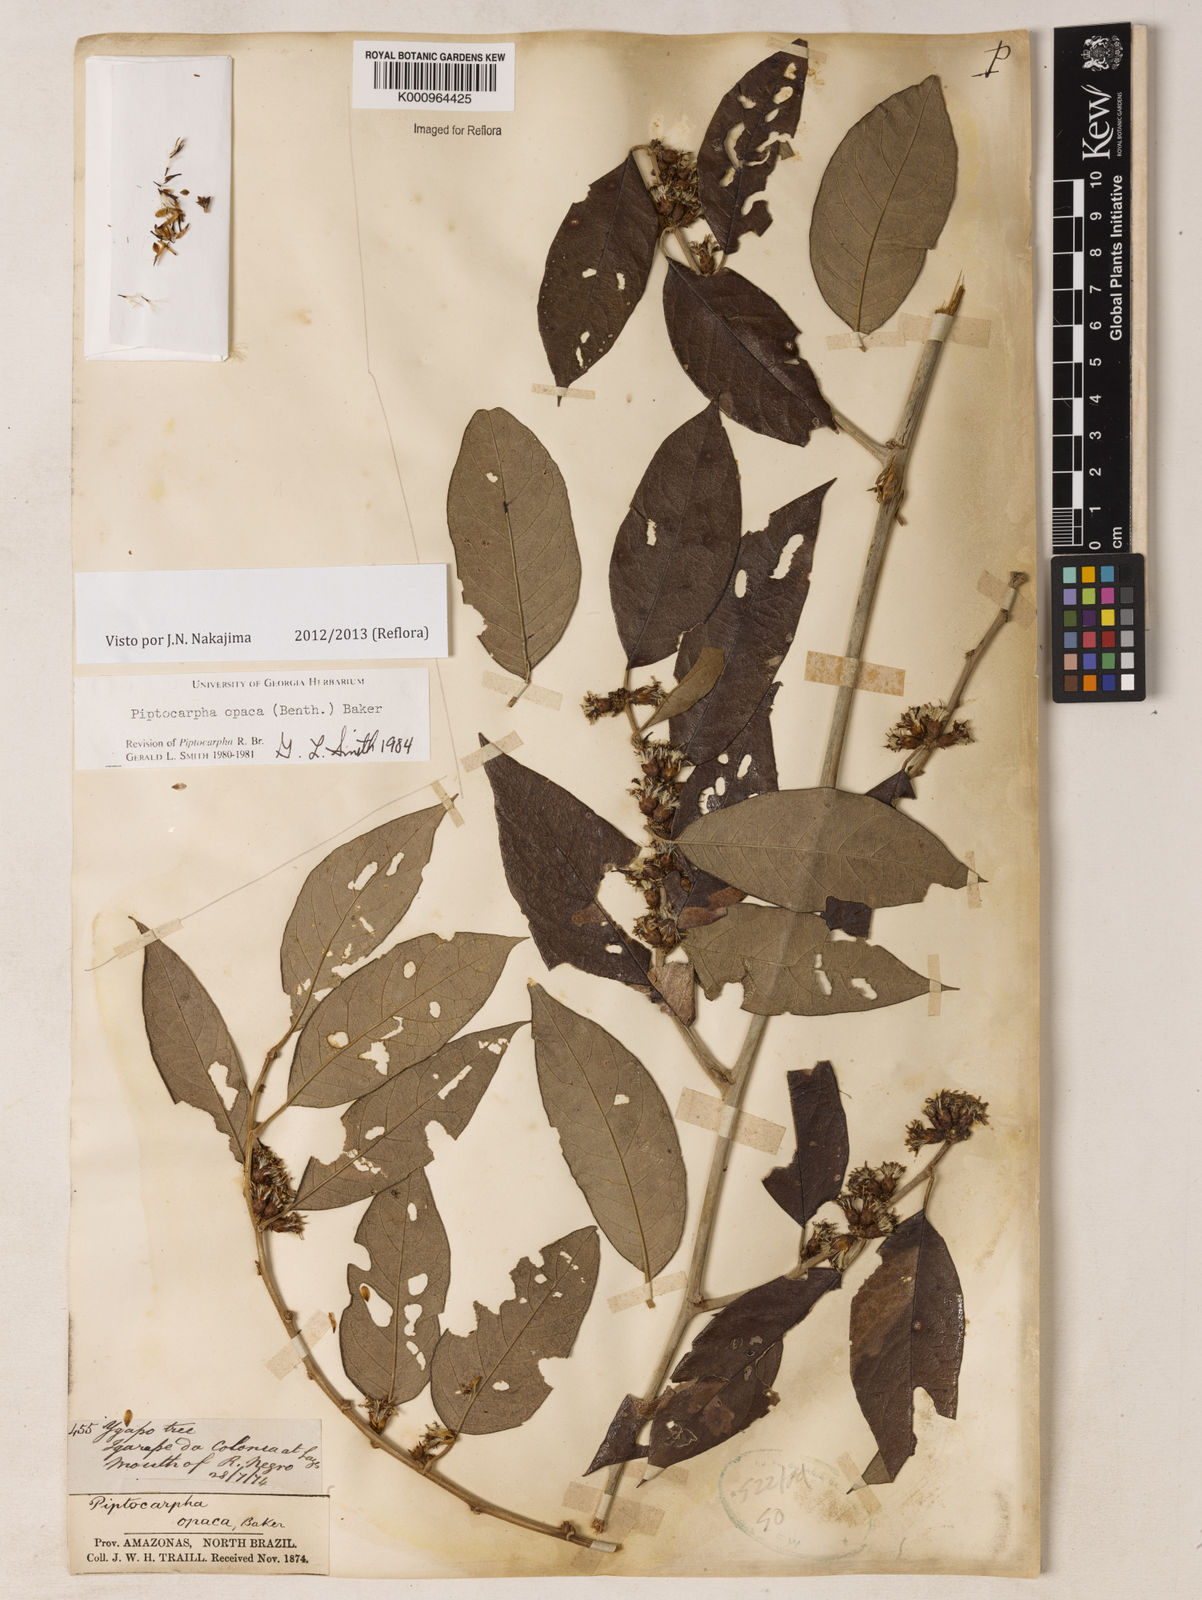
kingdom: Plantae
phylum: Tracheophyta
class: Magnoliopsida
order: Asterales
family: Asteraceae
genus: Piptocarpha
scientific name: Piptocarpha opaca
